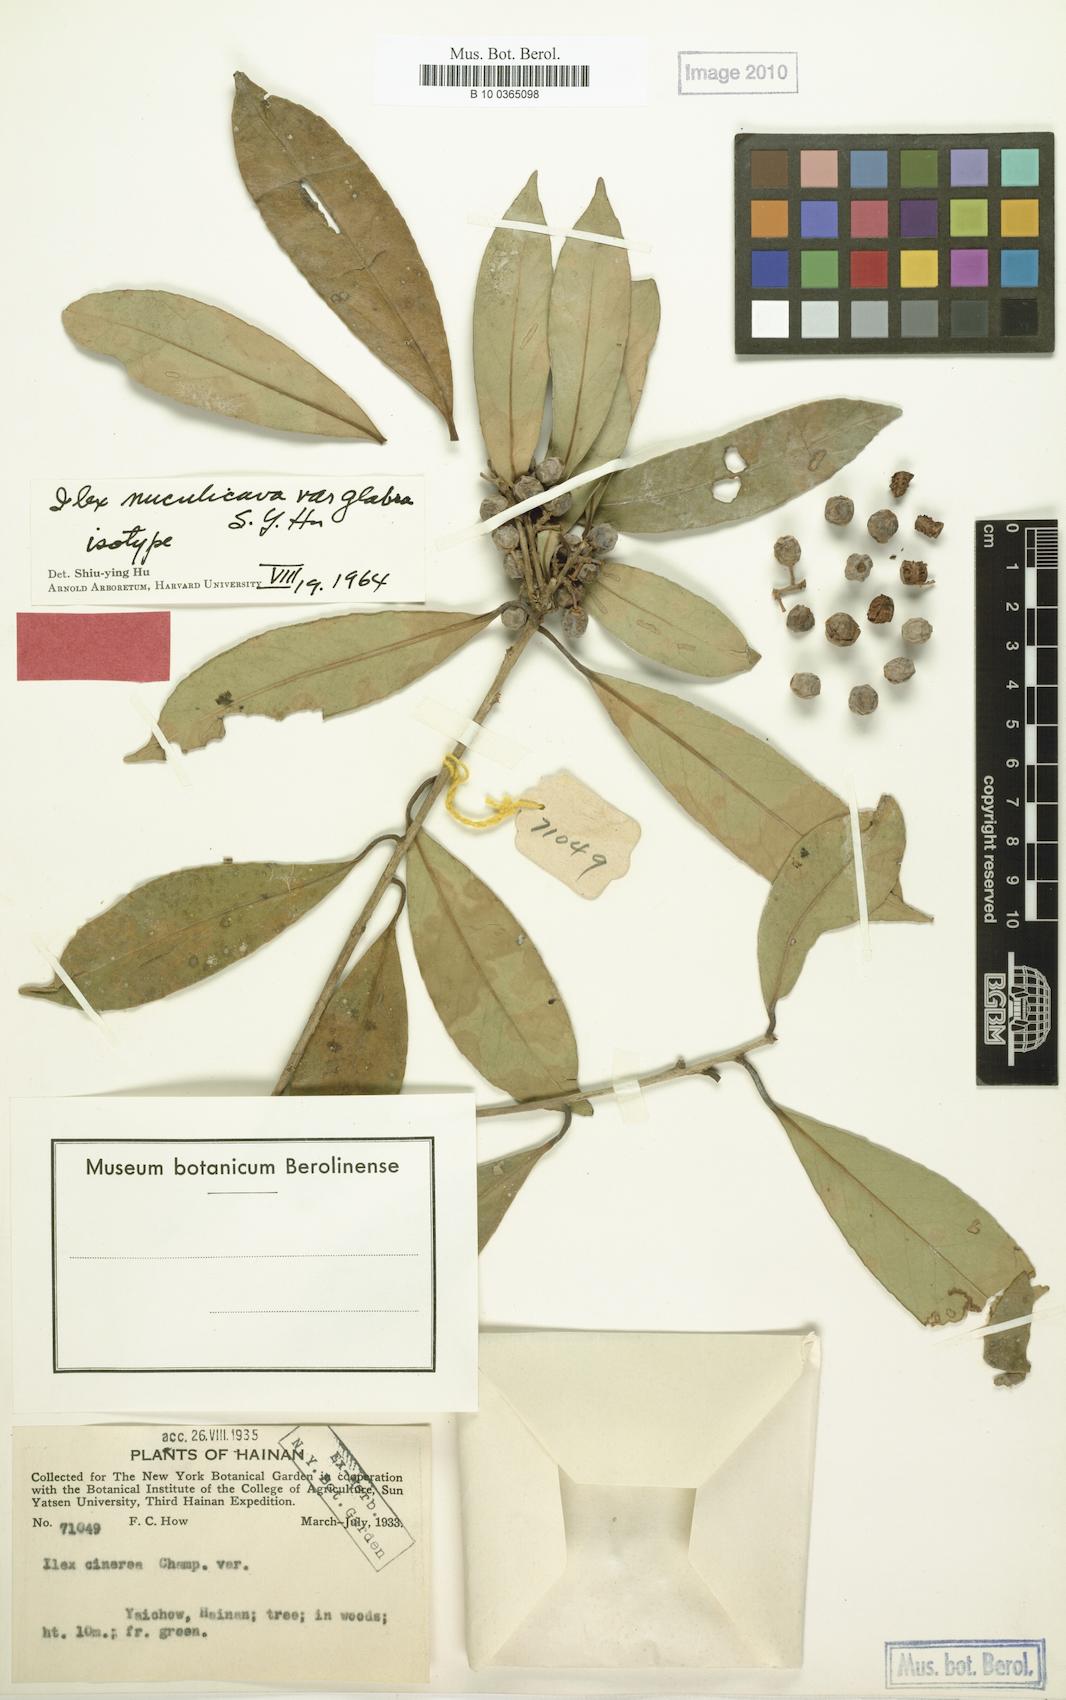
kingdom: Plantae
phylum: Tracheophyta
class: Magnoliopsida
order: Aquifoliales
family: Aquifoliaceae
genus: Ilex
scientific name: Ilex nuculicava
